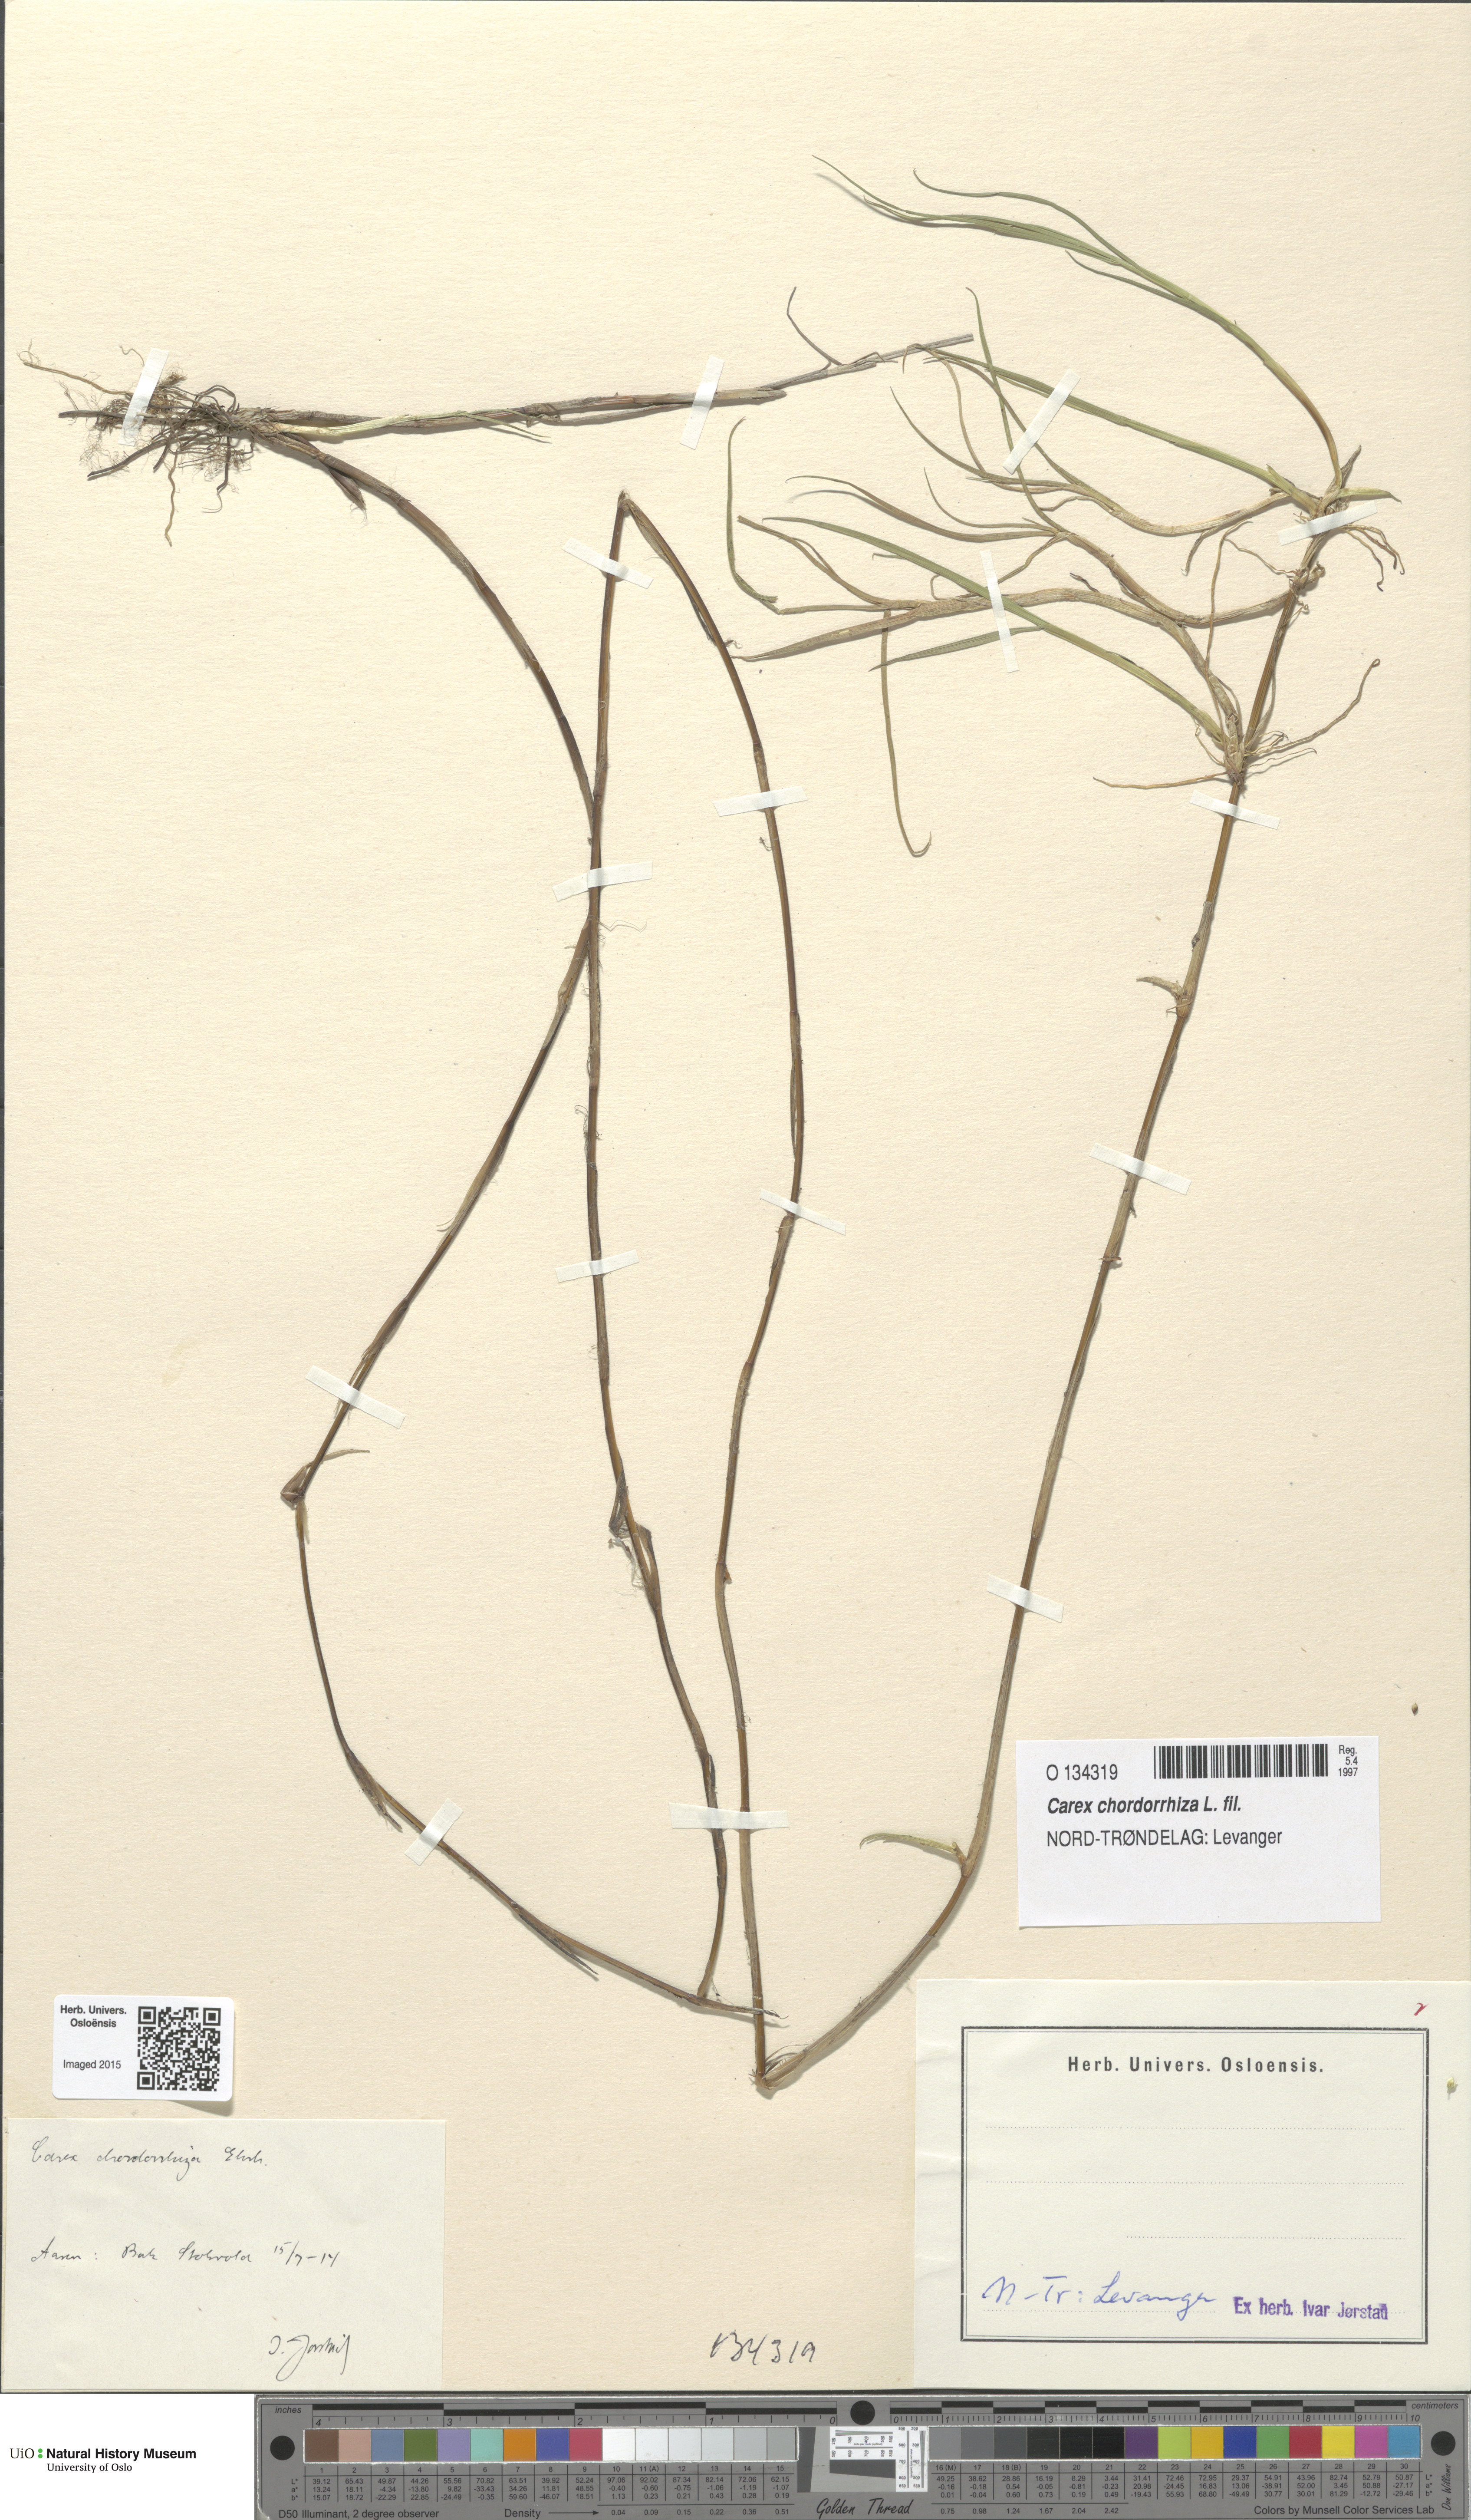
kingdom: Plantae
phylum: Tracheophyta
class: Liliopsida
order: Poales
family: Cyperaceae
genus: Carex
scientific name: Carex chordorrhiza
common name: String sedge
